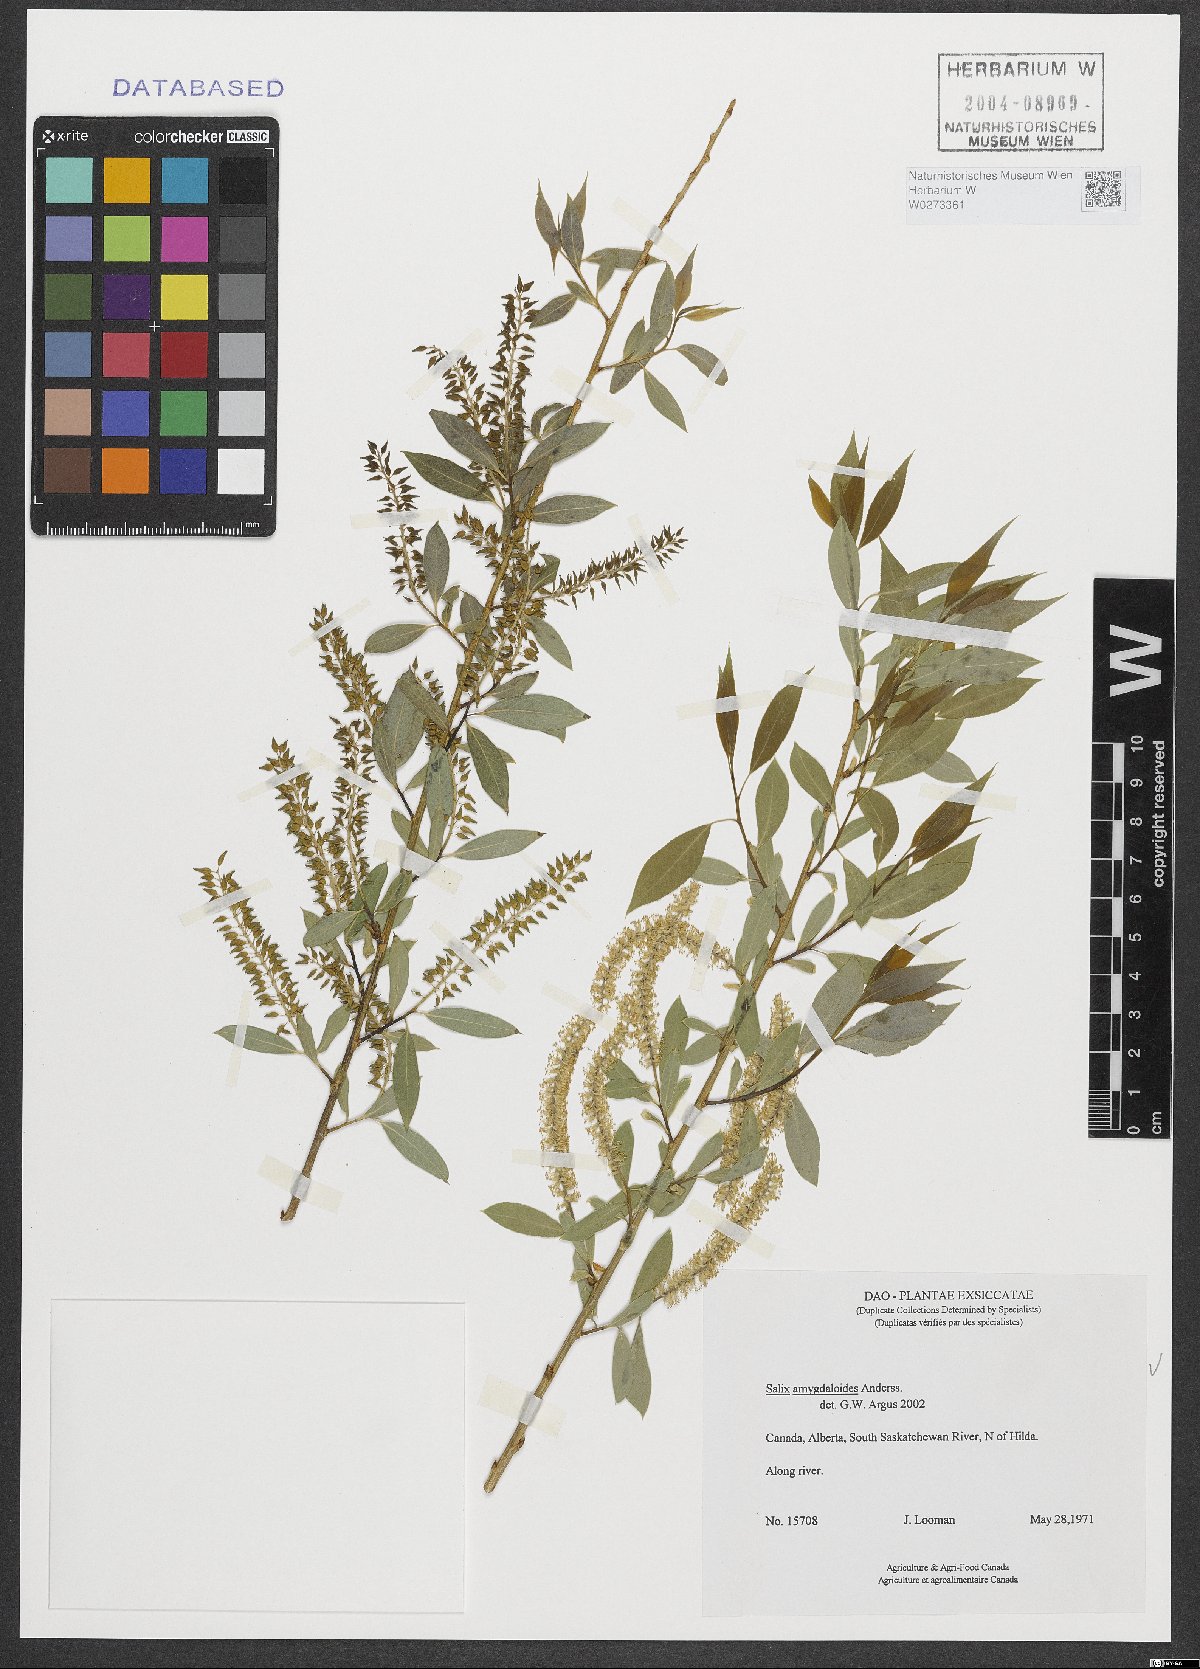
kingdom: Plantae
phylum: Tracheophyta
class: Magnoliopsida
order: Malpighiales
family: Salicaceae
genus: Salix
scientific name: Salix amygdaloides
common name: Peach leaf willow
